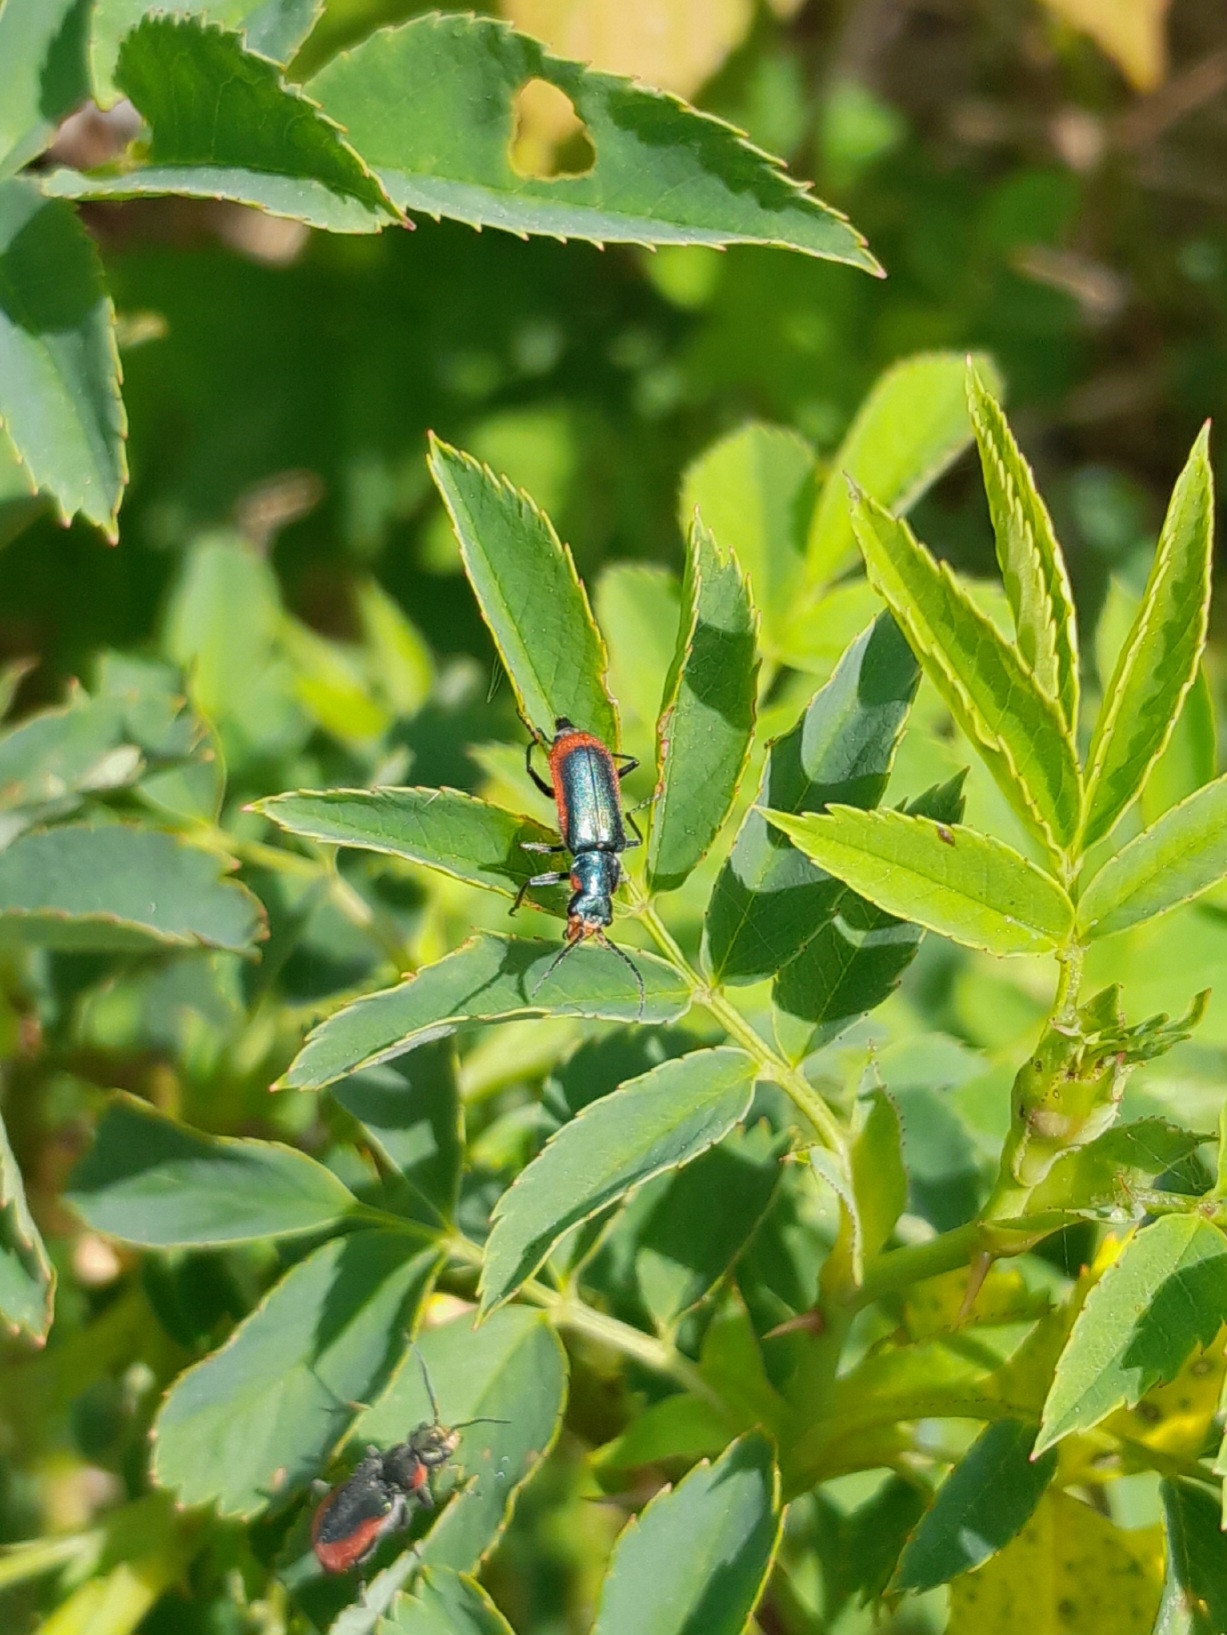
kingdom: Animalia
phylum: Arthropoda
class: Insecta
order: Coleoptera
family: Melyridae
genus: Malachius
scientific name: Malachius aeneus
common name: Stor malakitbille
